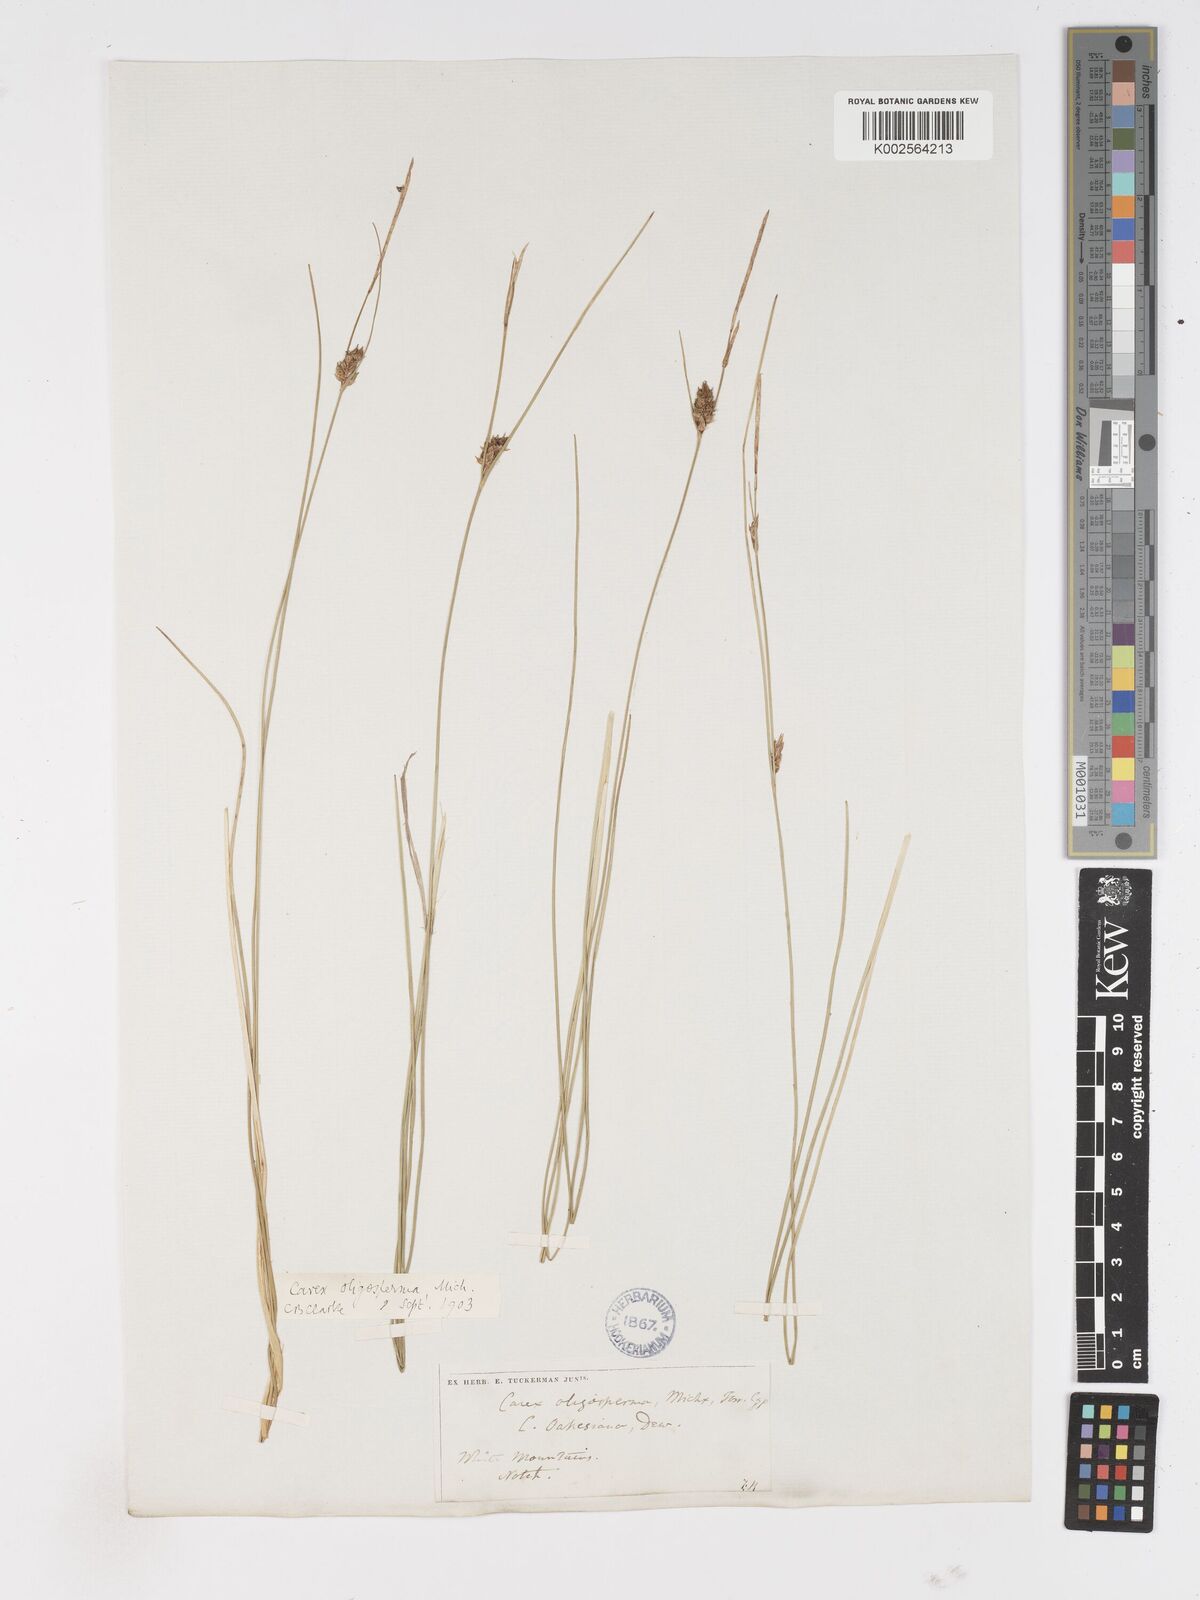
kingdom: Plantae
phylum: Tracheophyta
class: Liliopsida
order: Poales
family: Cyperaceae
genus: Carex
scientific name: Carex oligosperma
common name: Few-seed sedge
